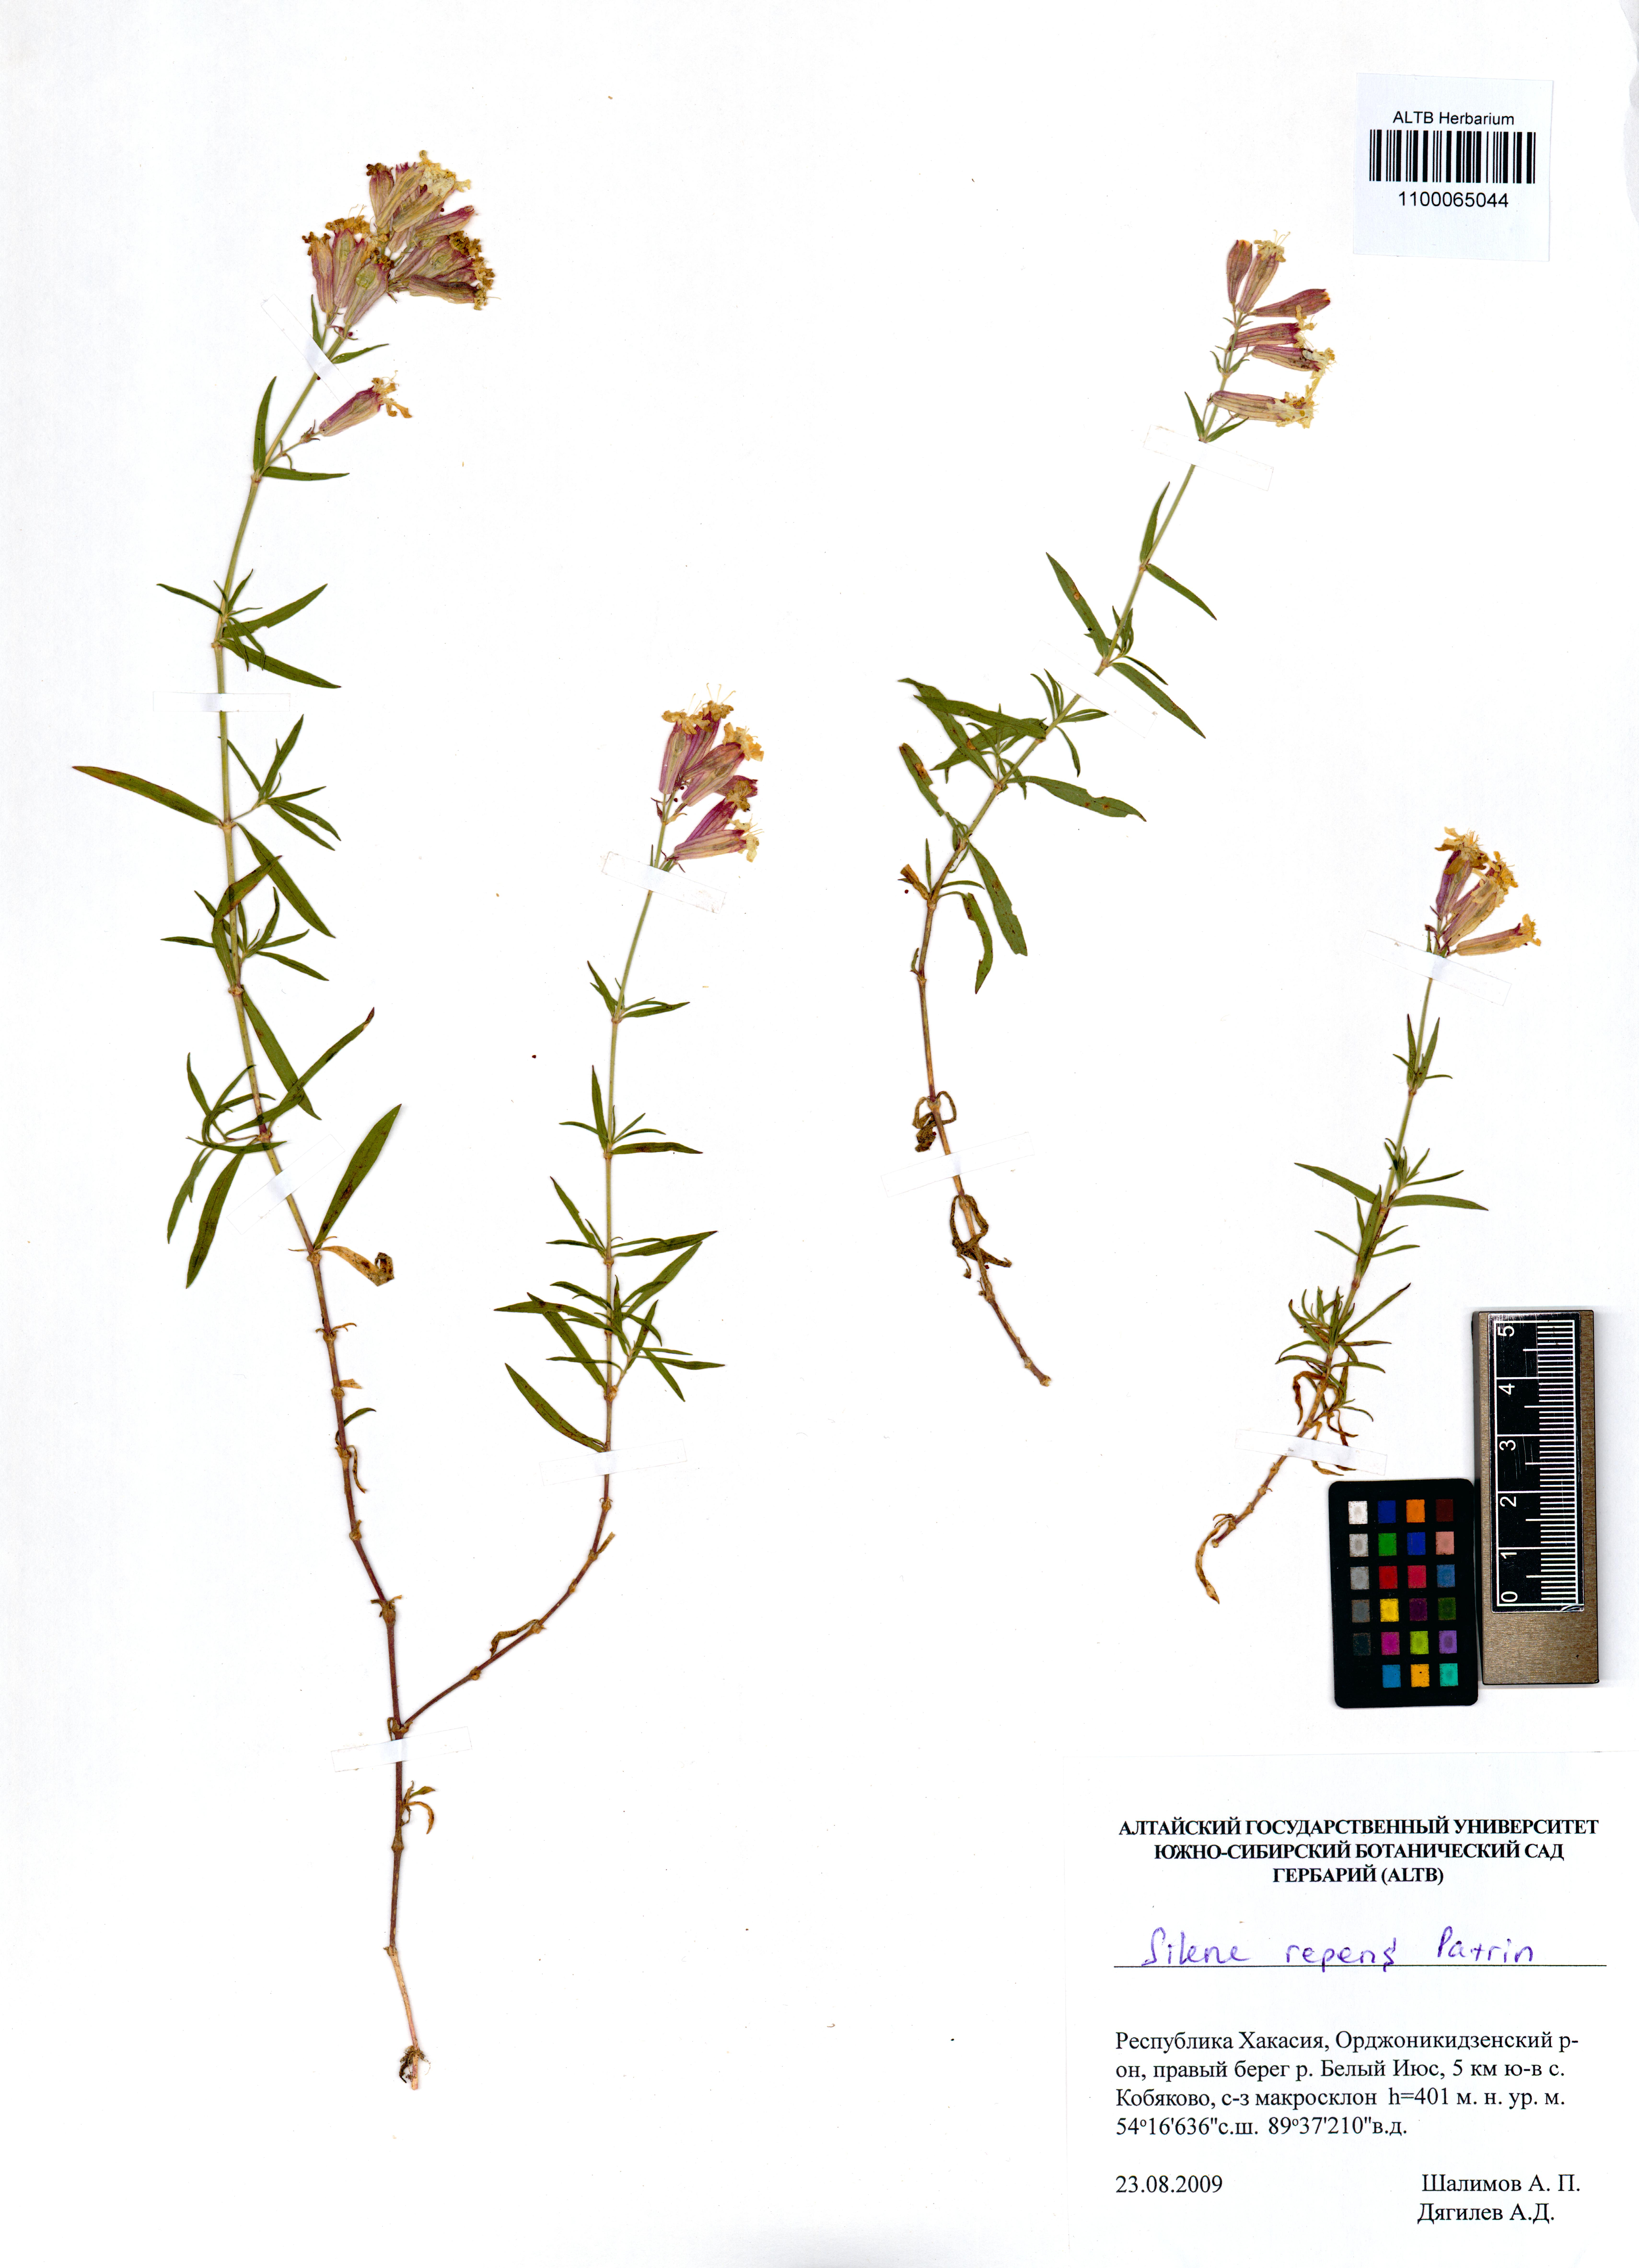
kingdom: Plantae
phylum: Tracheophyta
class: Magnoliopsida
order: Caryophyllales
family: Caryophyllaceae
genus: Silene
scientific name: Silene repens
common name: Pink campion
